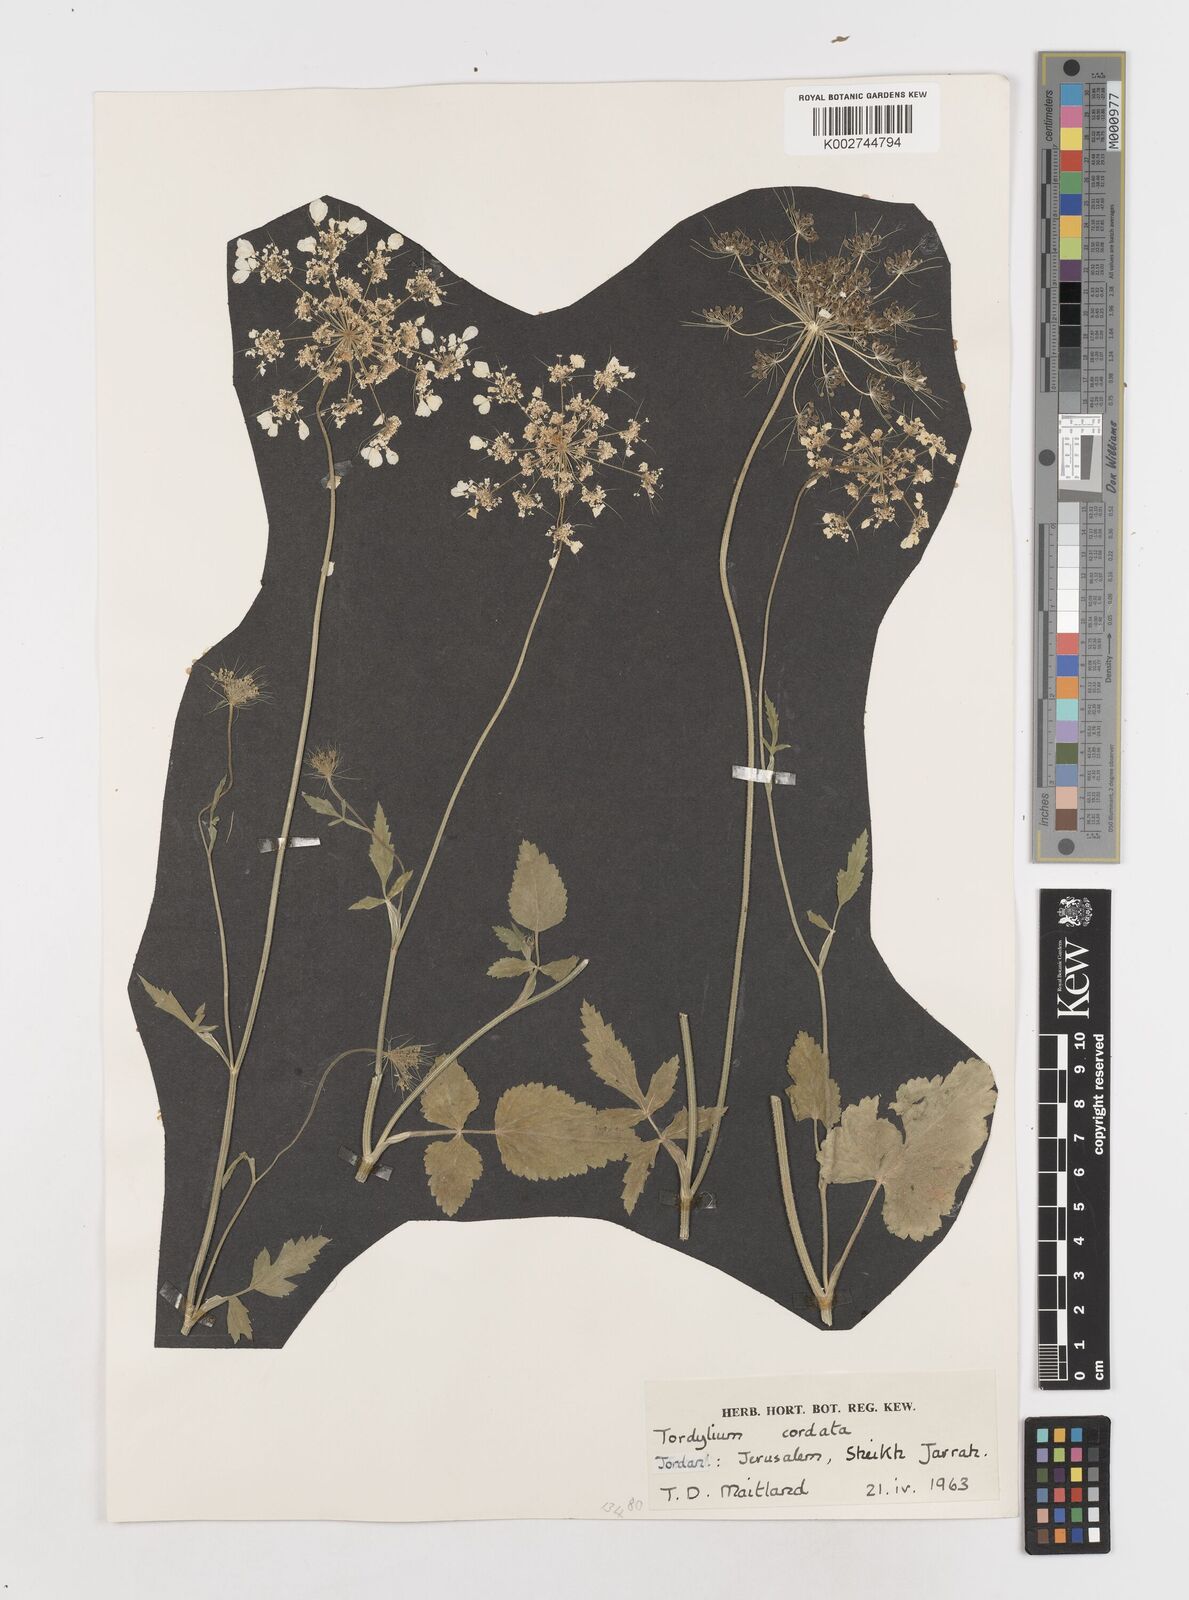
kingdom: Plantae
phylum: Tracheophyta
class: Magnoliopsida
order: Apiales
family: Apiaceae
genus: Ainsworthia
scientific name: Ainsworthia trachycarpa
